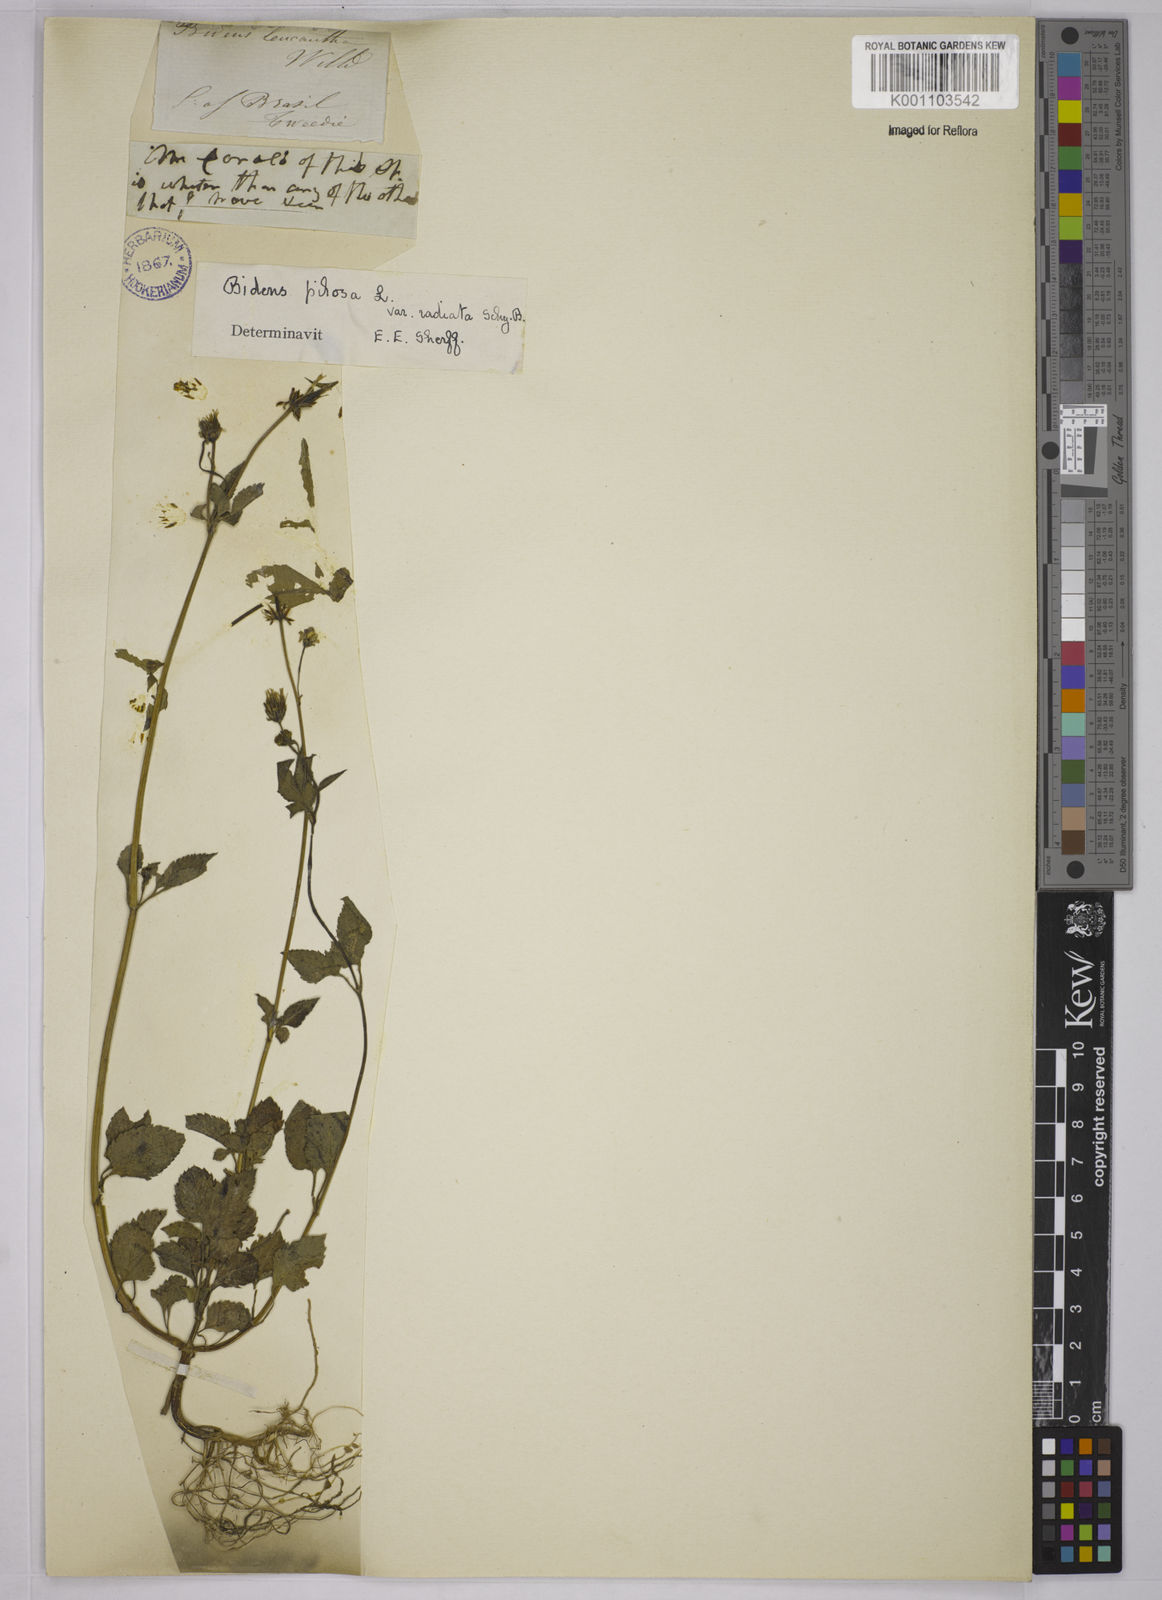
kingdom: Plantae
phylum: Tracheophyta
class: Magnoliopsida
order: Asterales
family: Asteraceae
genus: Bidens
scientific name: Bidens pilosa
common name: Black-jack
